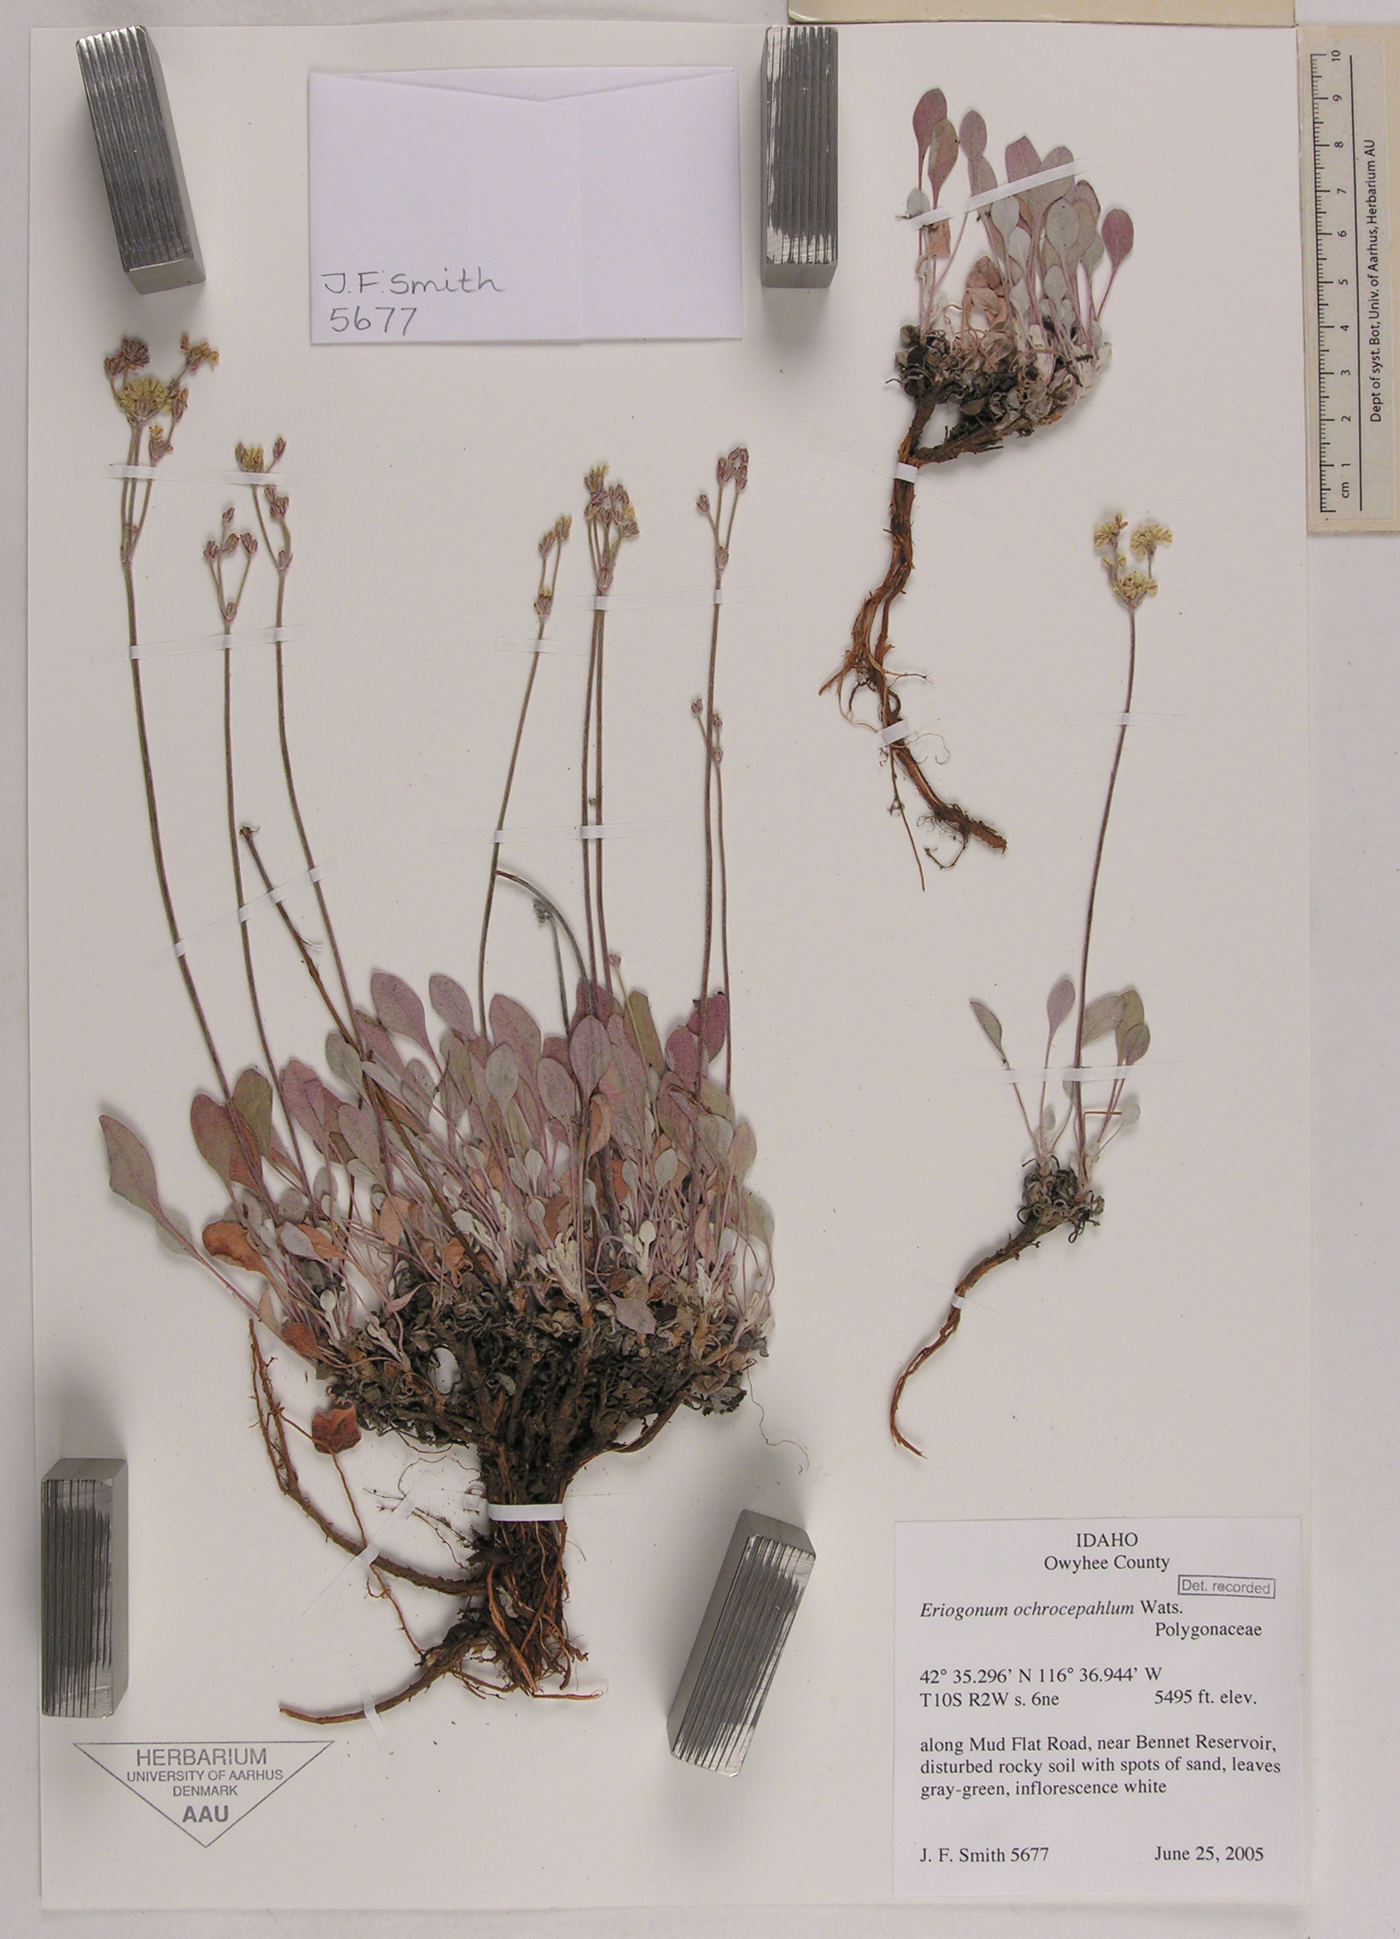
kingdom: Plantae
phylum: Tracheophyta
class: Magnoliopsida
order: Caryophyllales
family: Polygonaceae
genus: Eriogonum
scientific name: Eriogonum ochrocephalum
